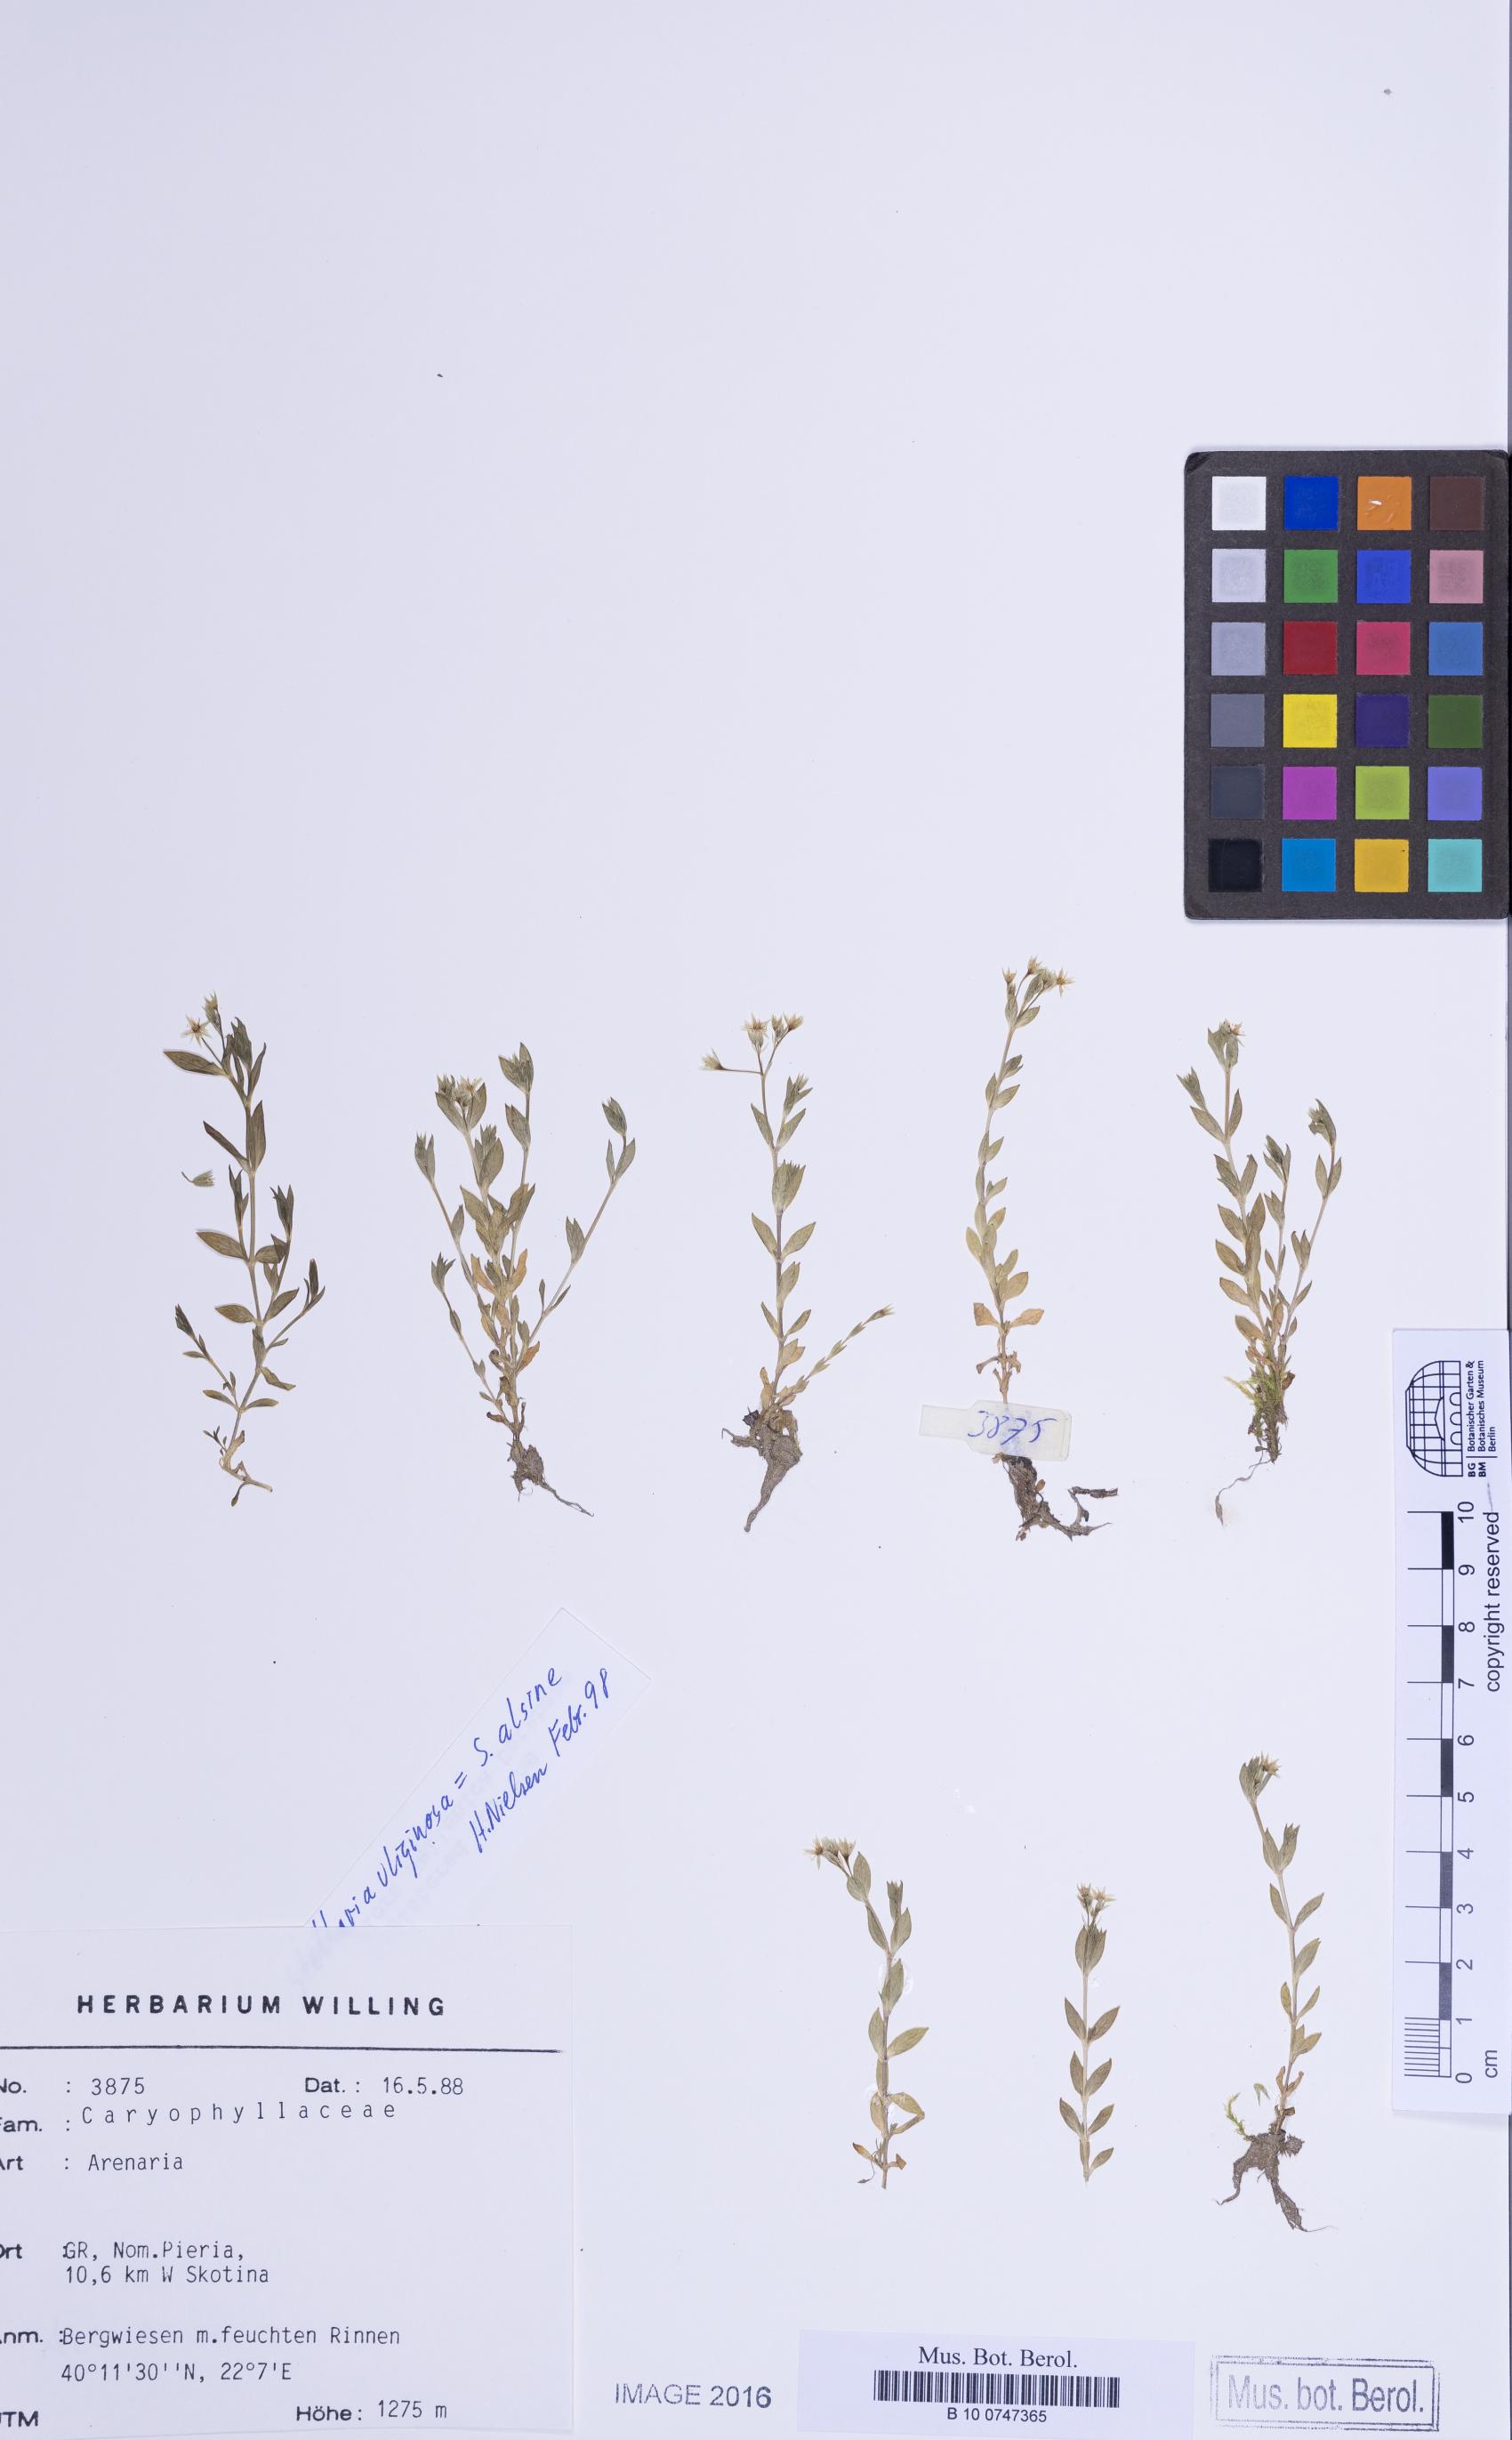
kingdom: Plantae
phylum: Tracheophyta
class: Magnoliopsida
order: Caryophyllales
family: Caryophyllaceae
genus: Stellaria
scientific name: Stellaria alsine
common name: Bog stitchwort
